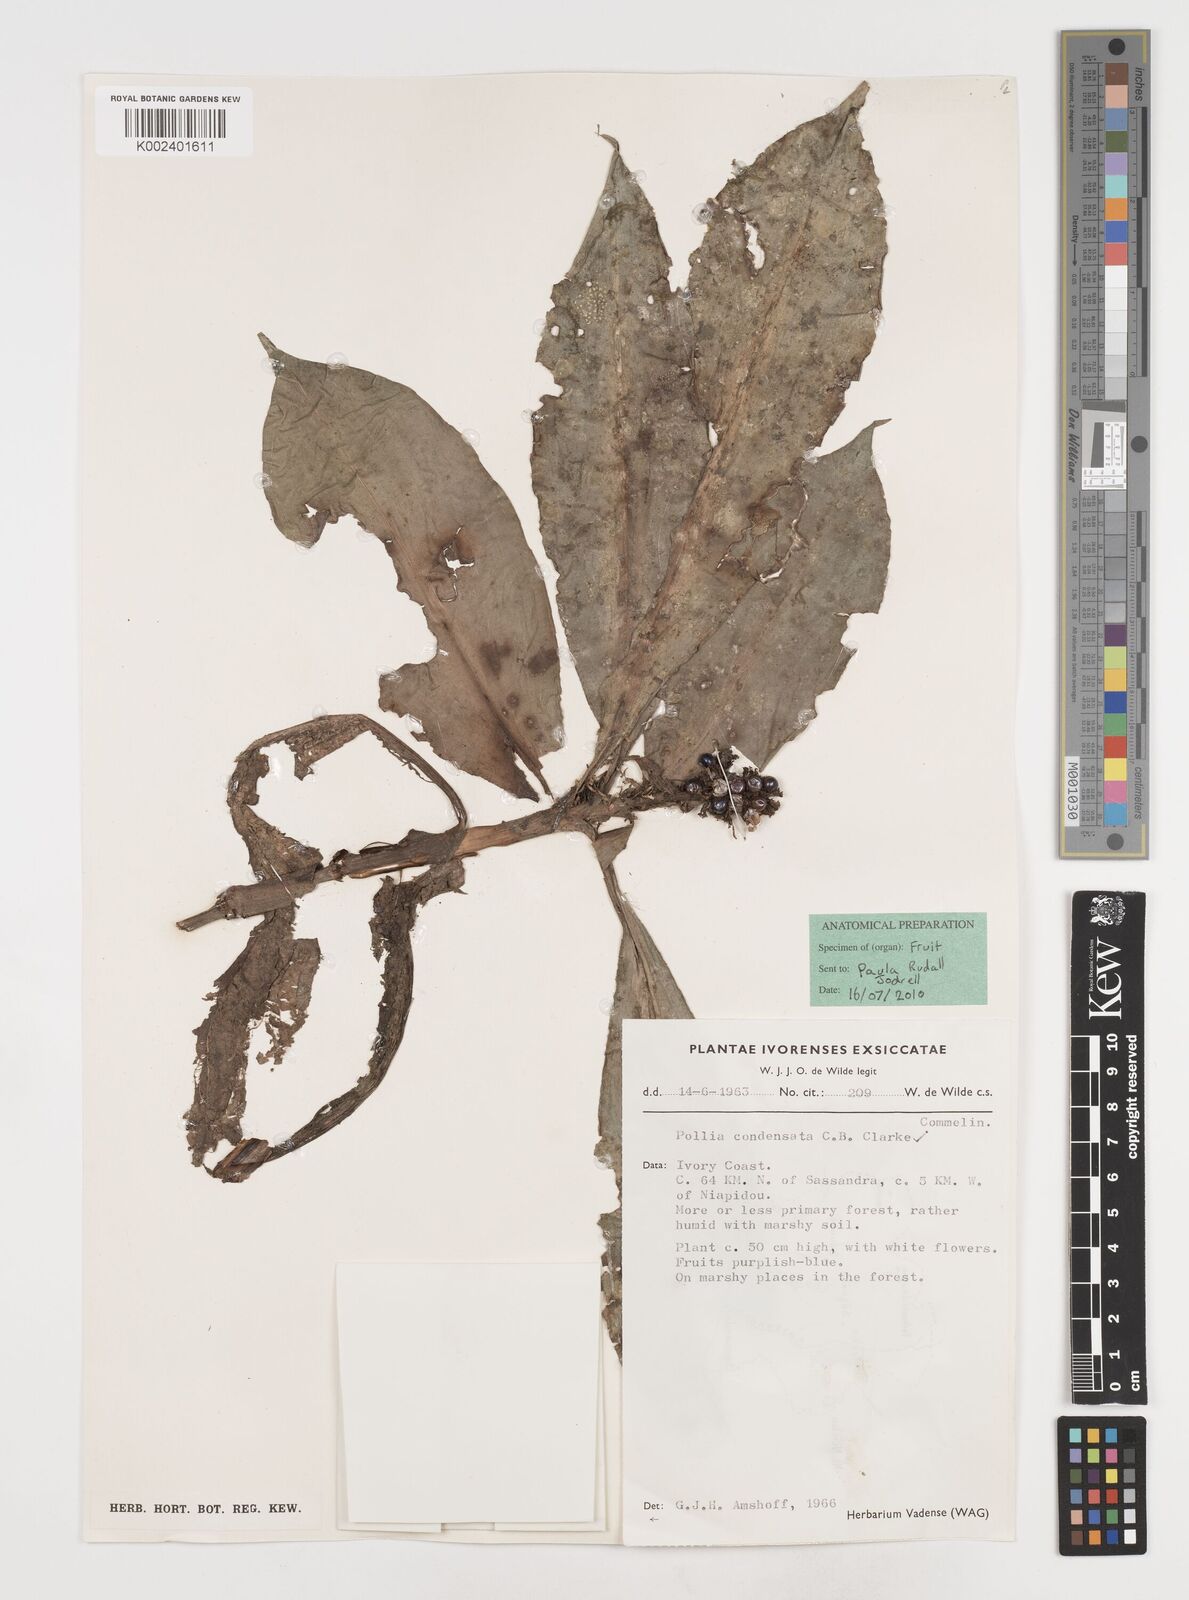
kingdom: Plantae
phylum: Tracheophyta
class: Liliopsida
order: Commelinales
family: Commelinaceae
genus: Pollia
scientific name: Pollia condensata
